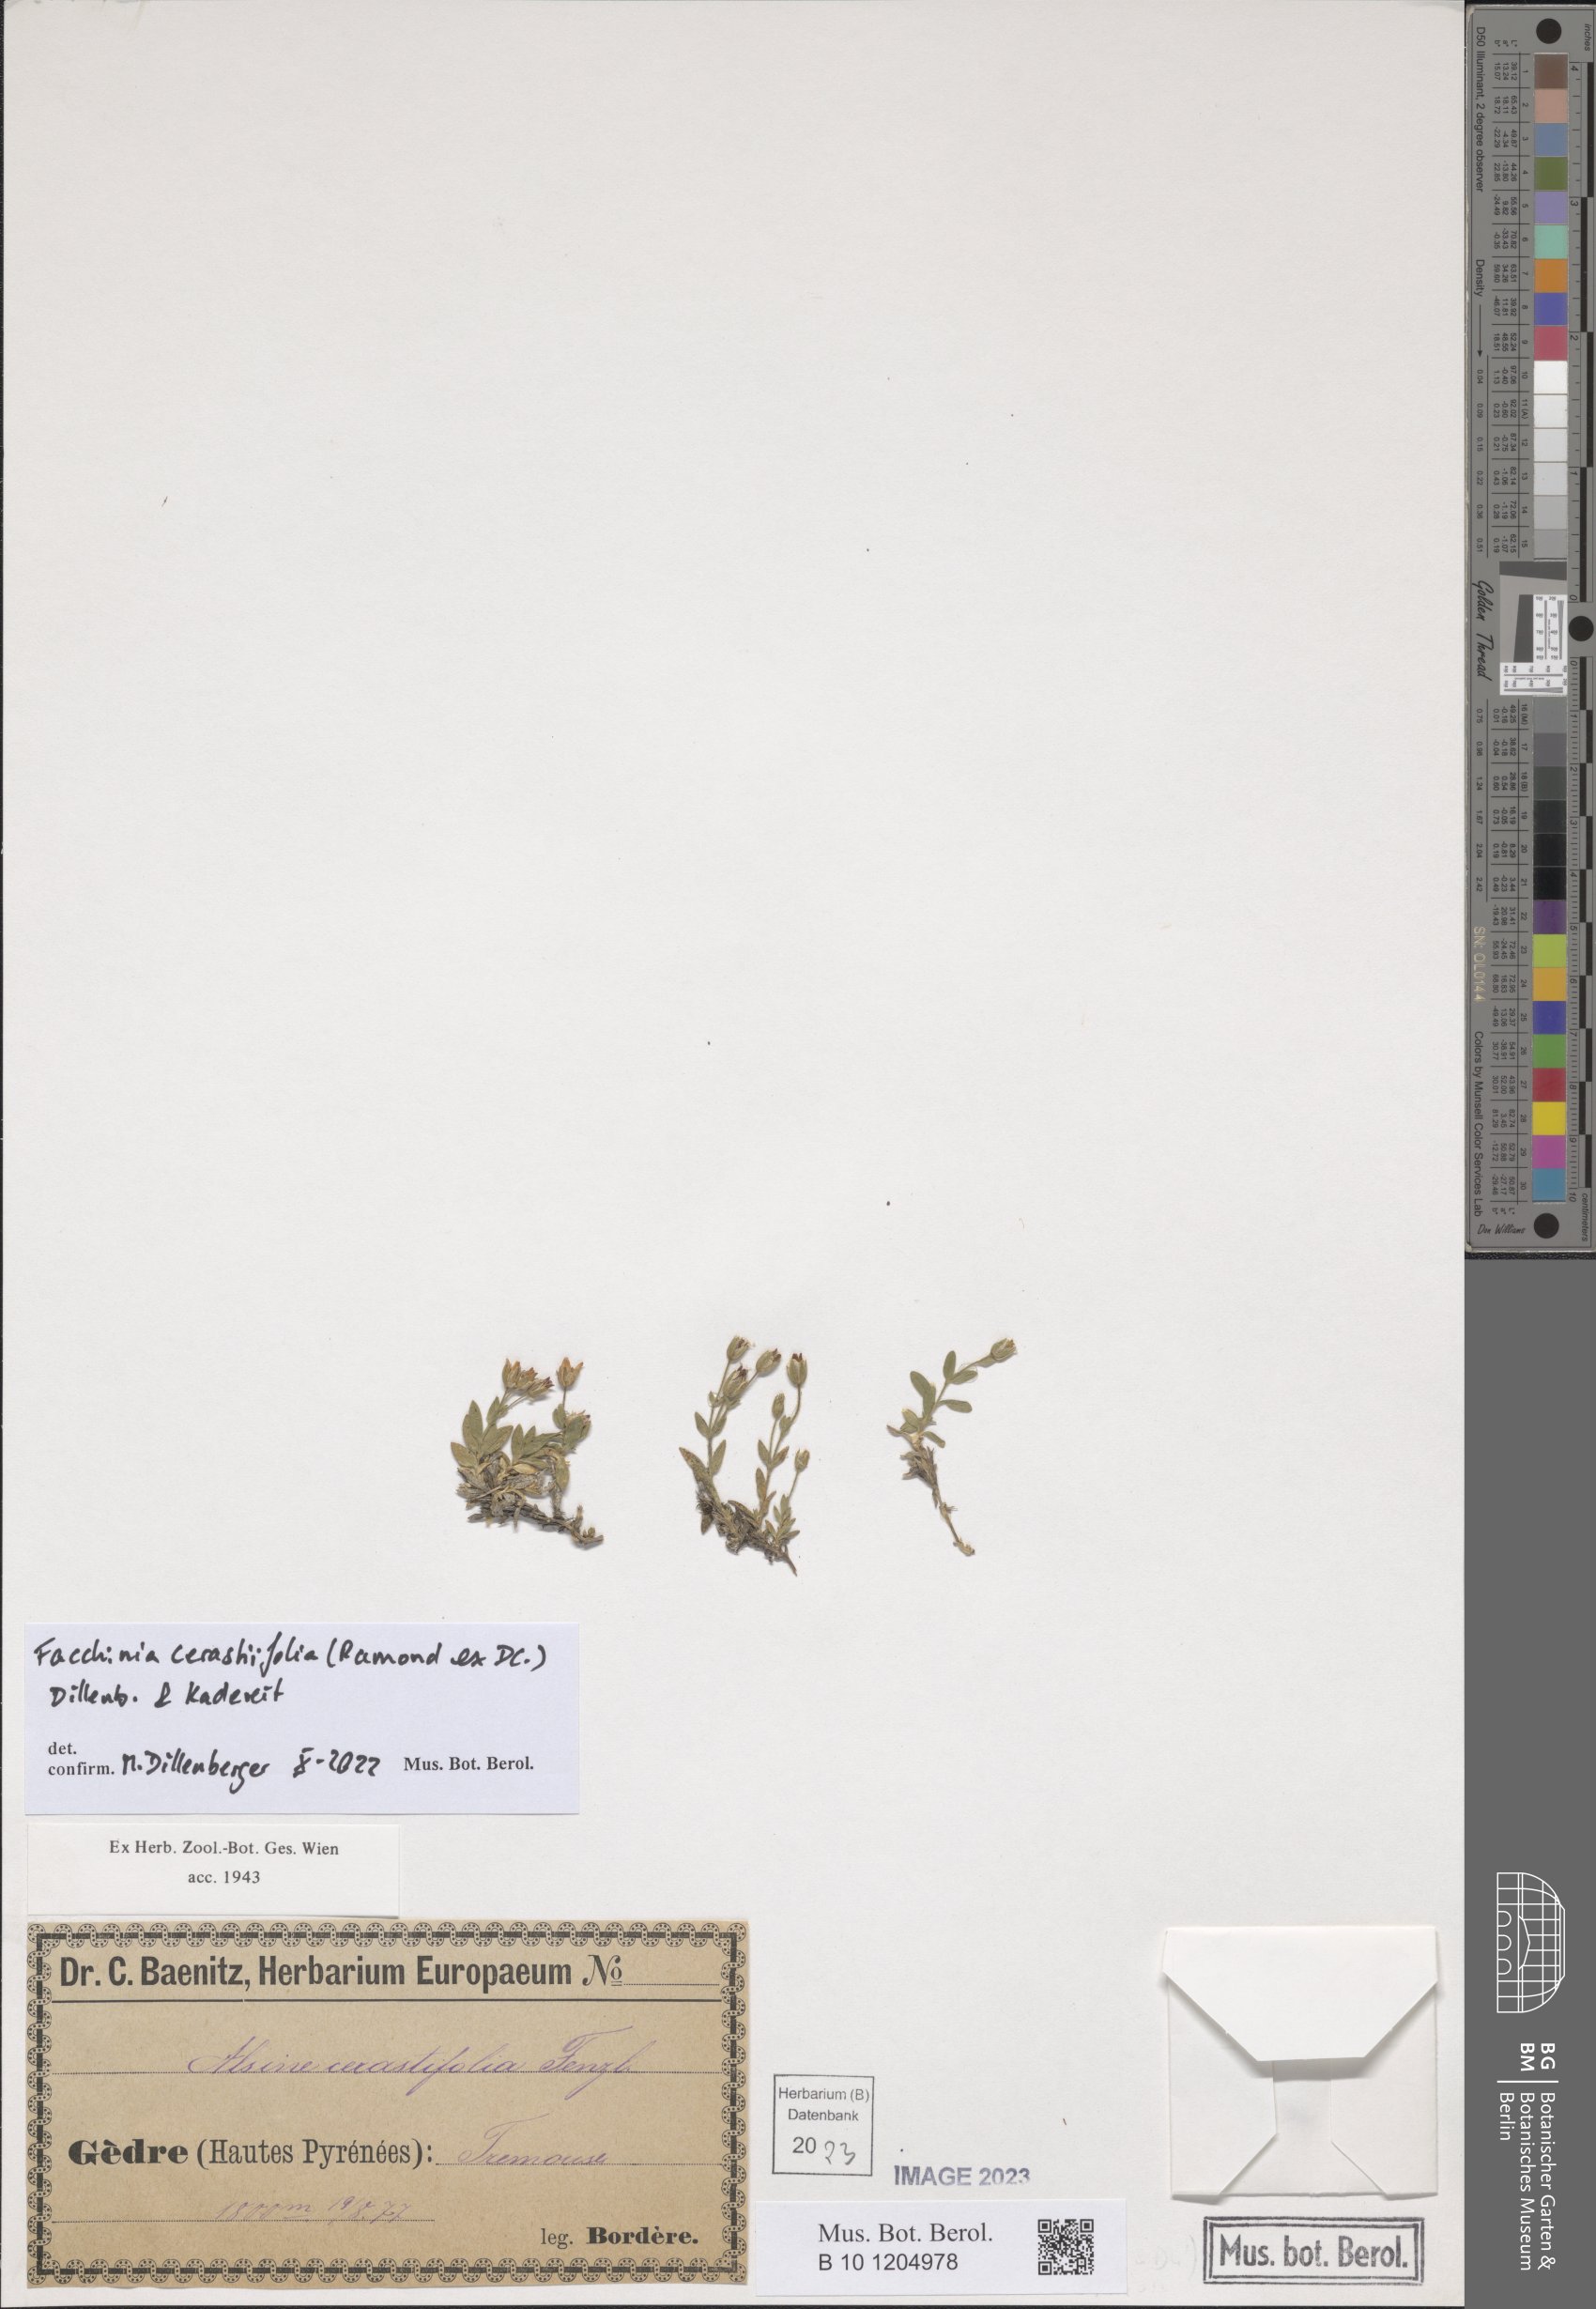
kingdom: Plantae
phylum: Tracheophyta
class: Magnoliopsida
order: Caryophyllales
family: Caryophyllaceae
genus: Facchinia
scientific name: Facchinia cerastiifolia
